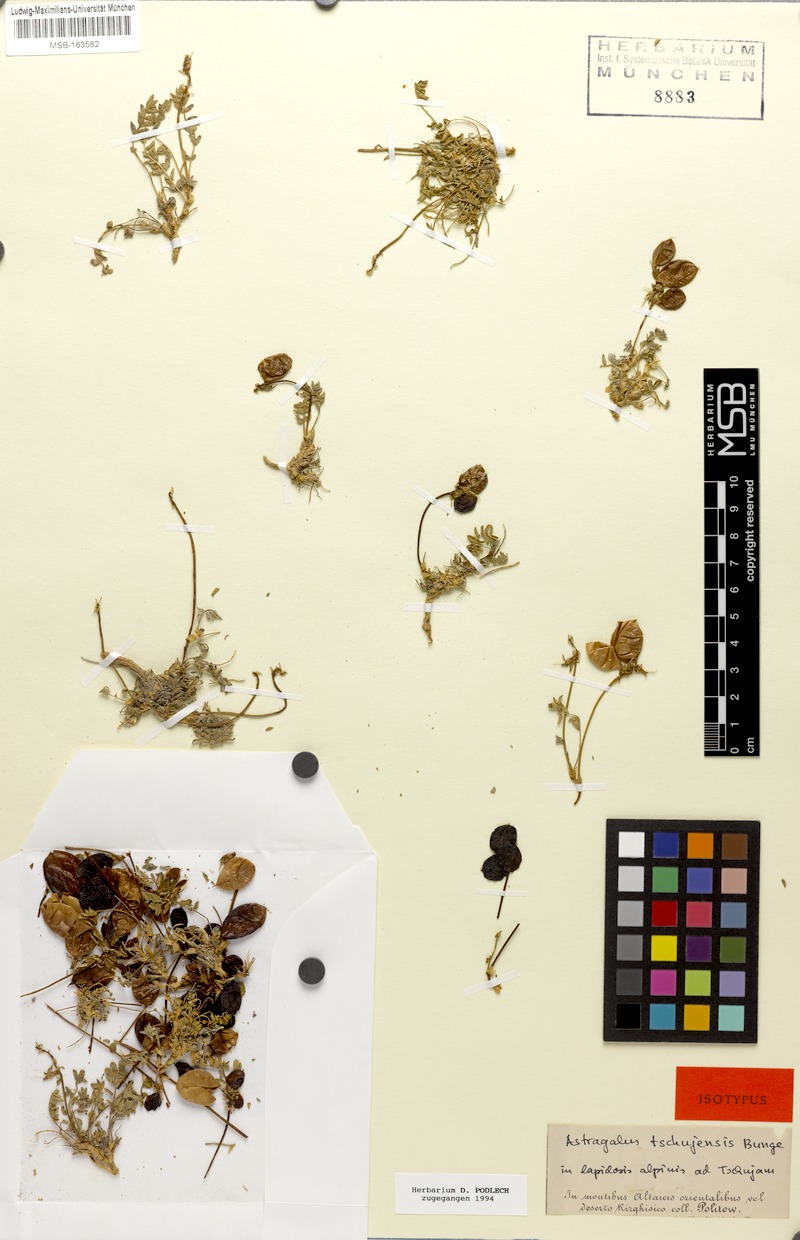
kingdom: Plantae
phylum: Tracheophyta
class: Magnoliopsida
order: Fabales
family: Fabaceae
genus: Astragalus
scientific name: Astragalus tschujensis
